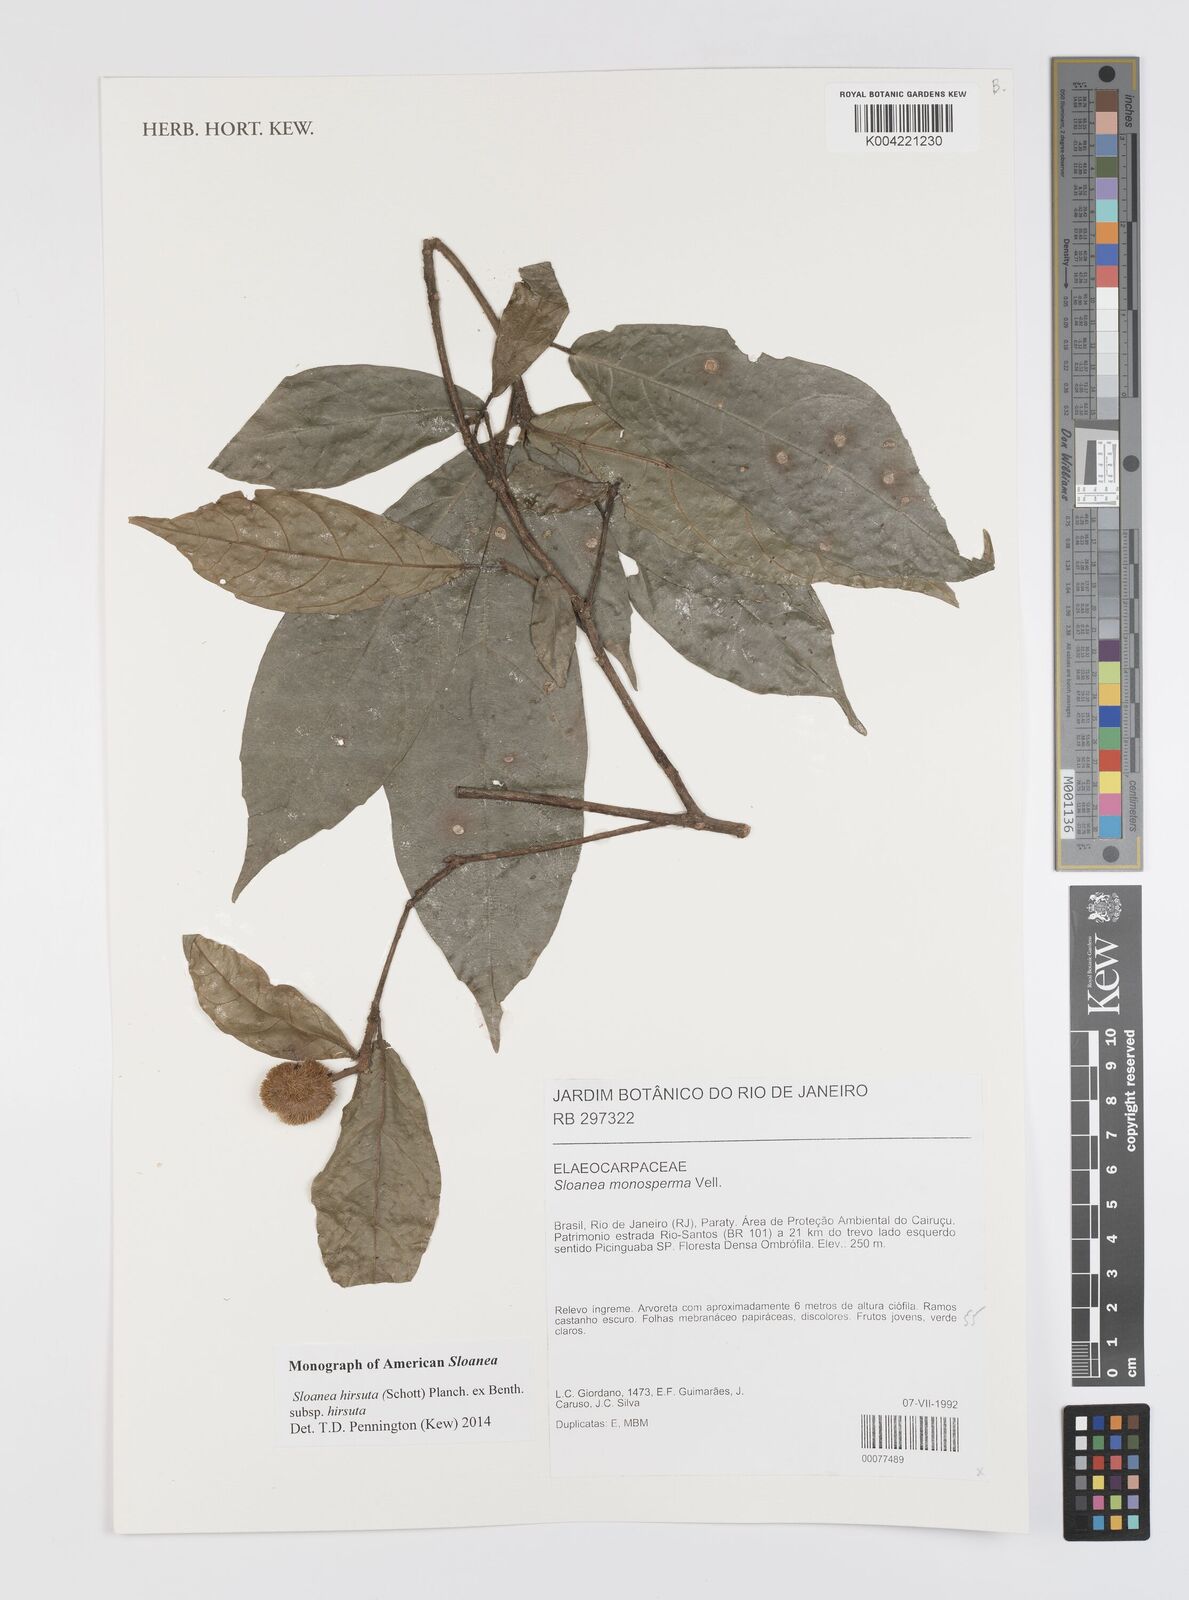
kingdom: Plantae
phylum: Tracheophyta
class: Magnoliopsida
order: Oxalidales
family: Elaeocarpaceae
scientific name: Elaeocarpaceae
